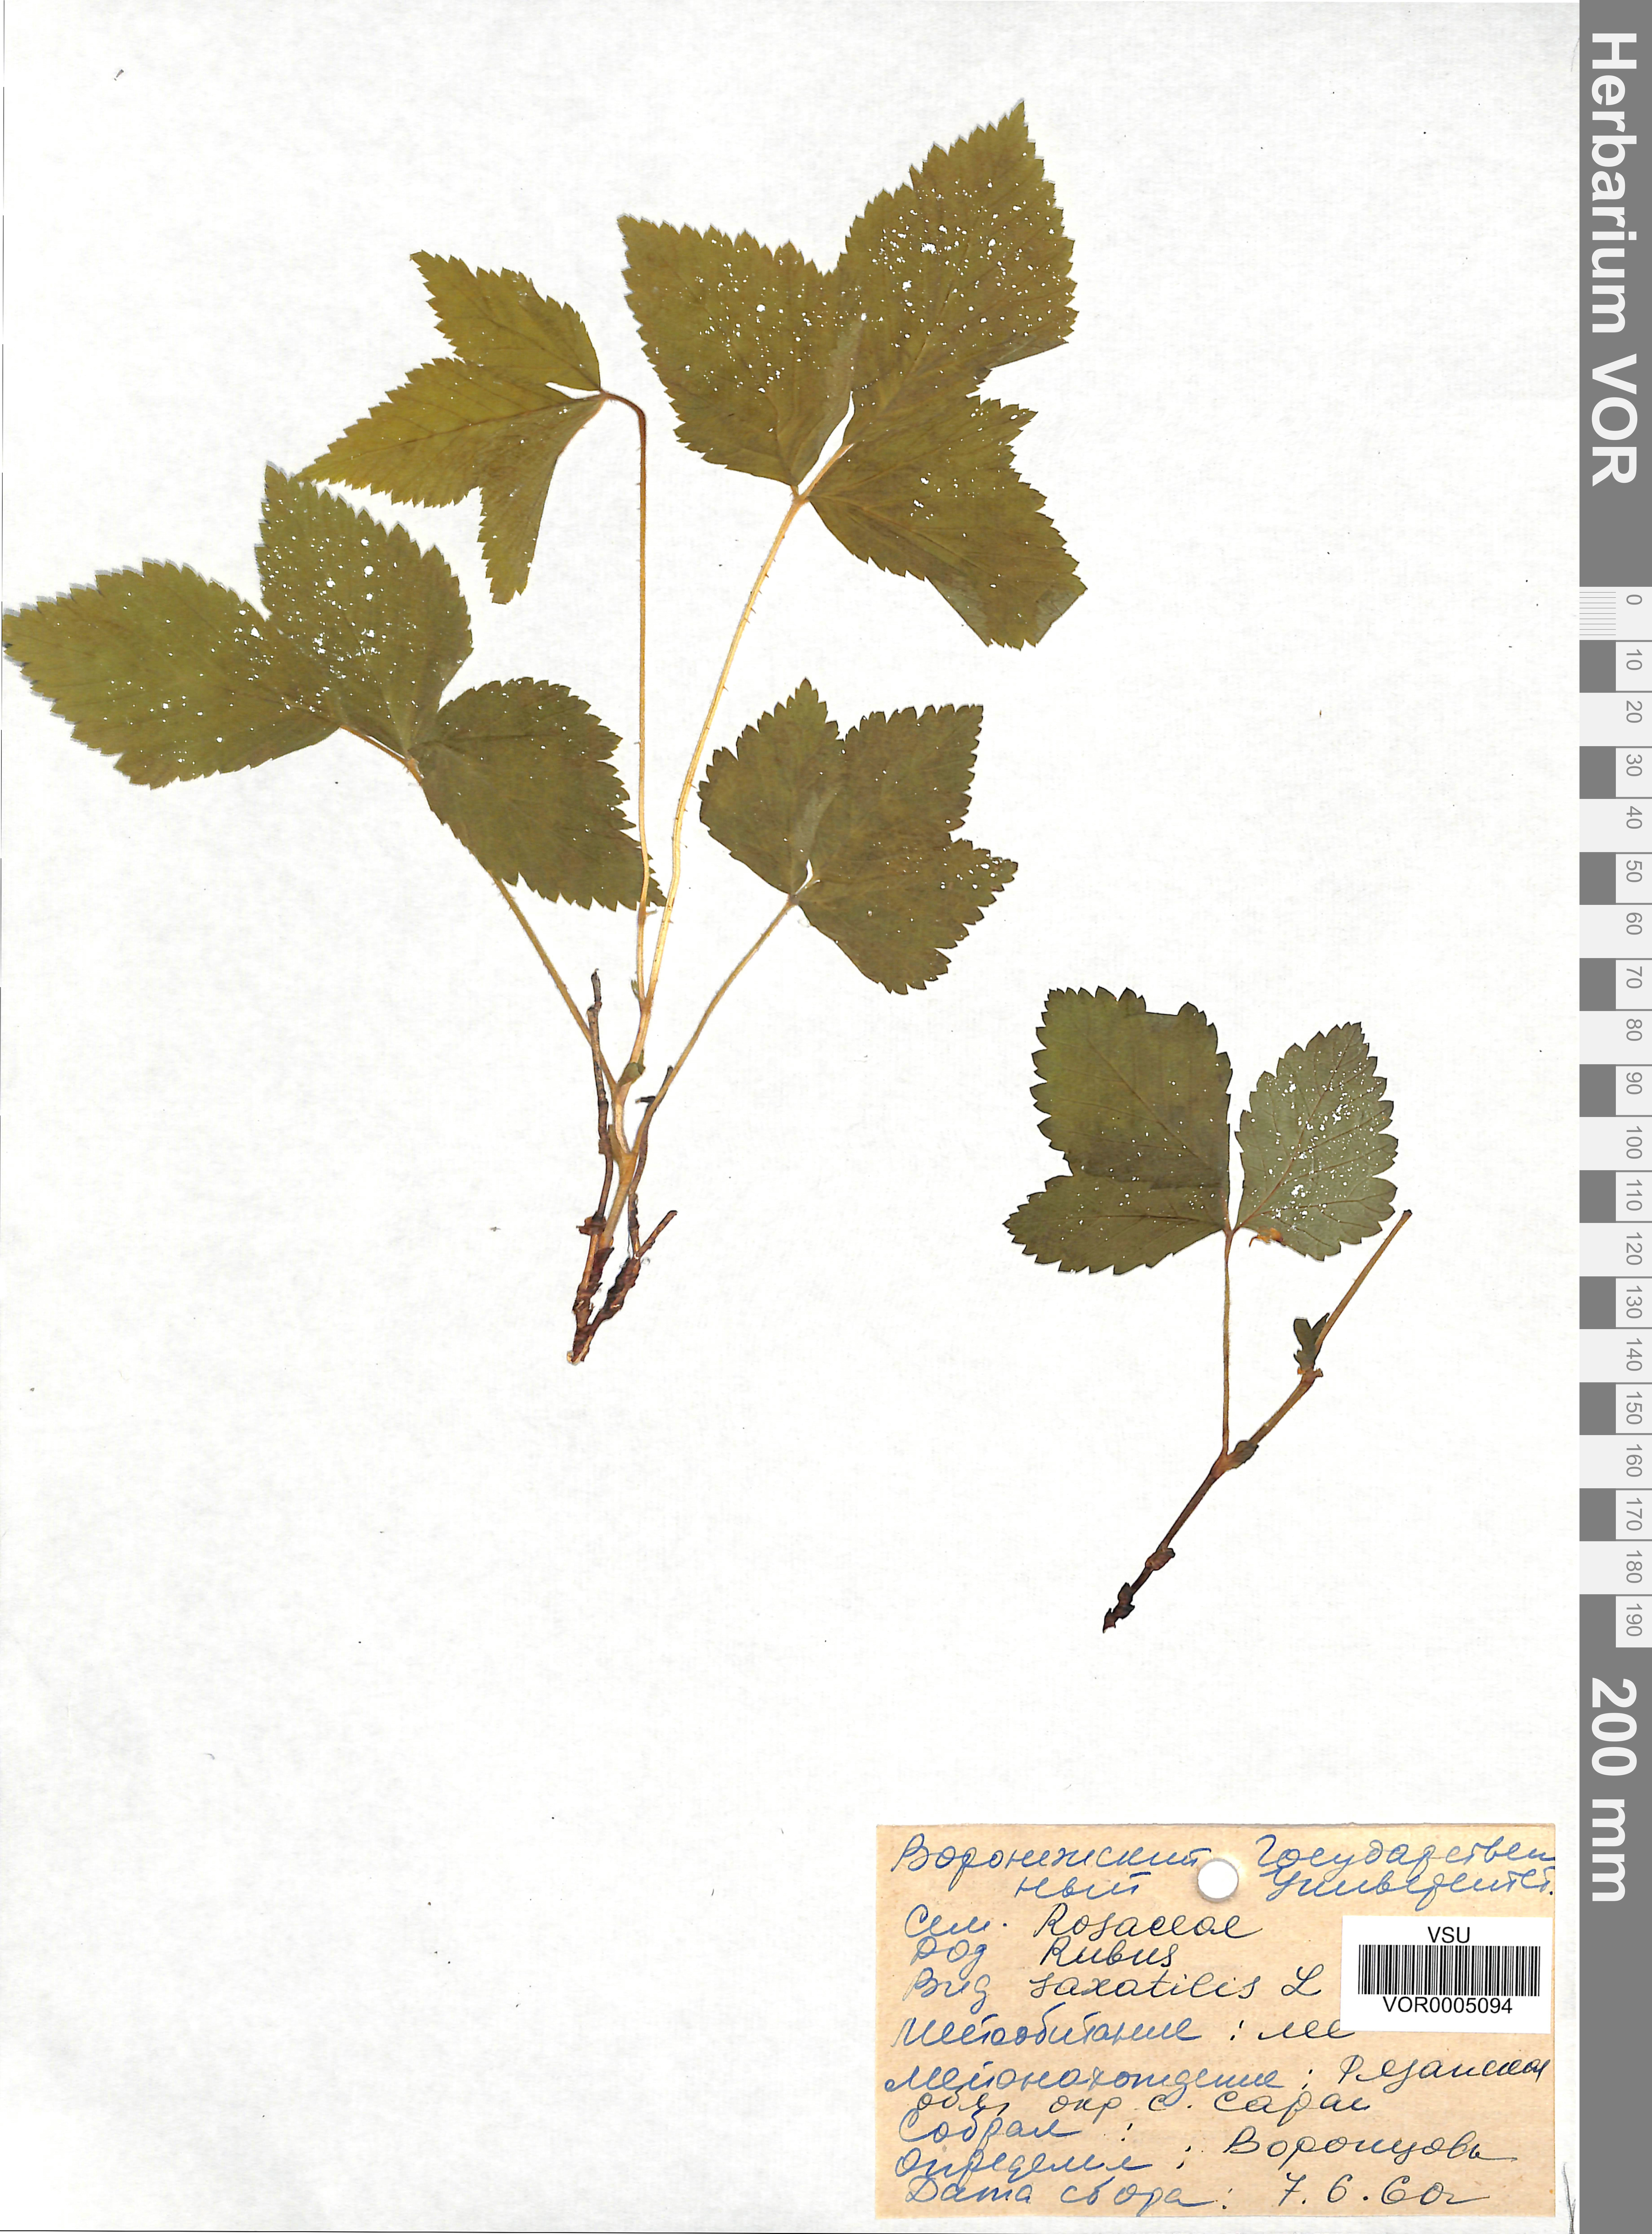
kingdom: Plantae
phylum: Tracheophyta
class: Magnoliopsida
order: Rosales
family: Rosaceae
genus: Rubus
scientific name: Rubus saxatilis
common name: Stone bramble
